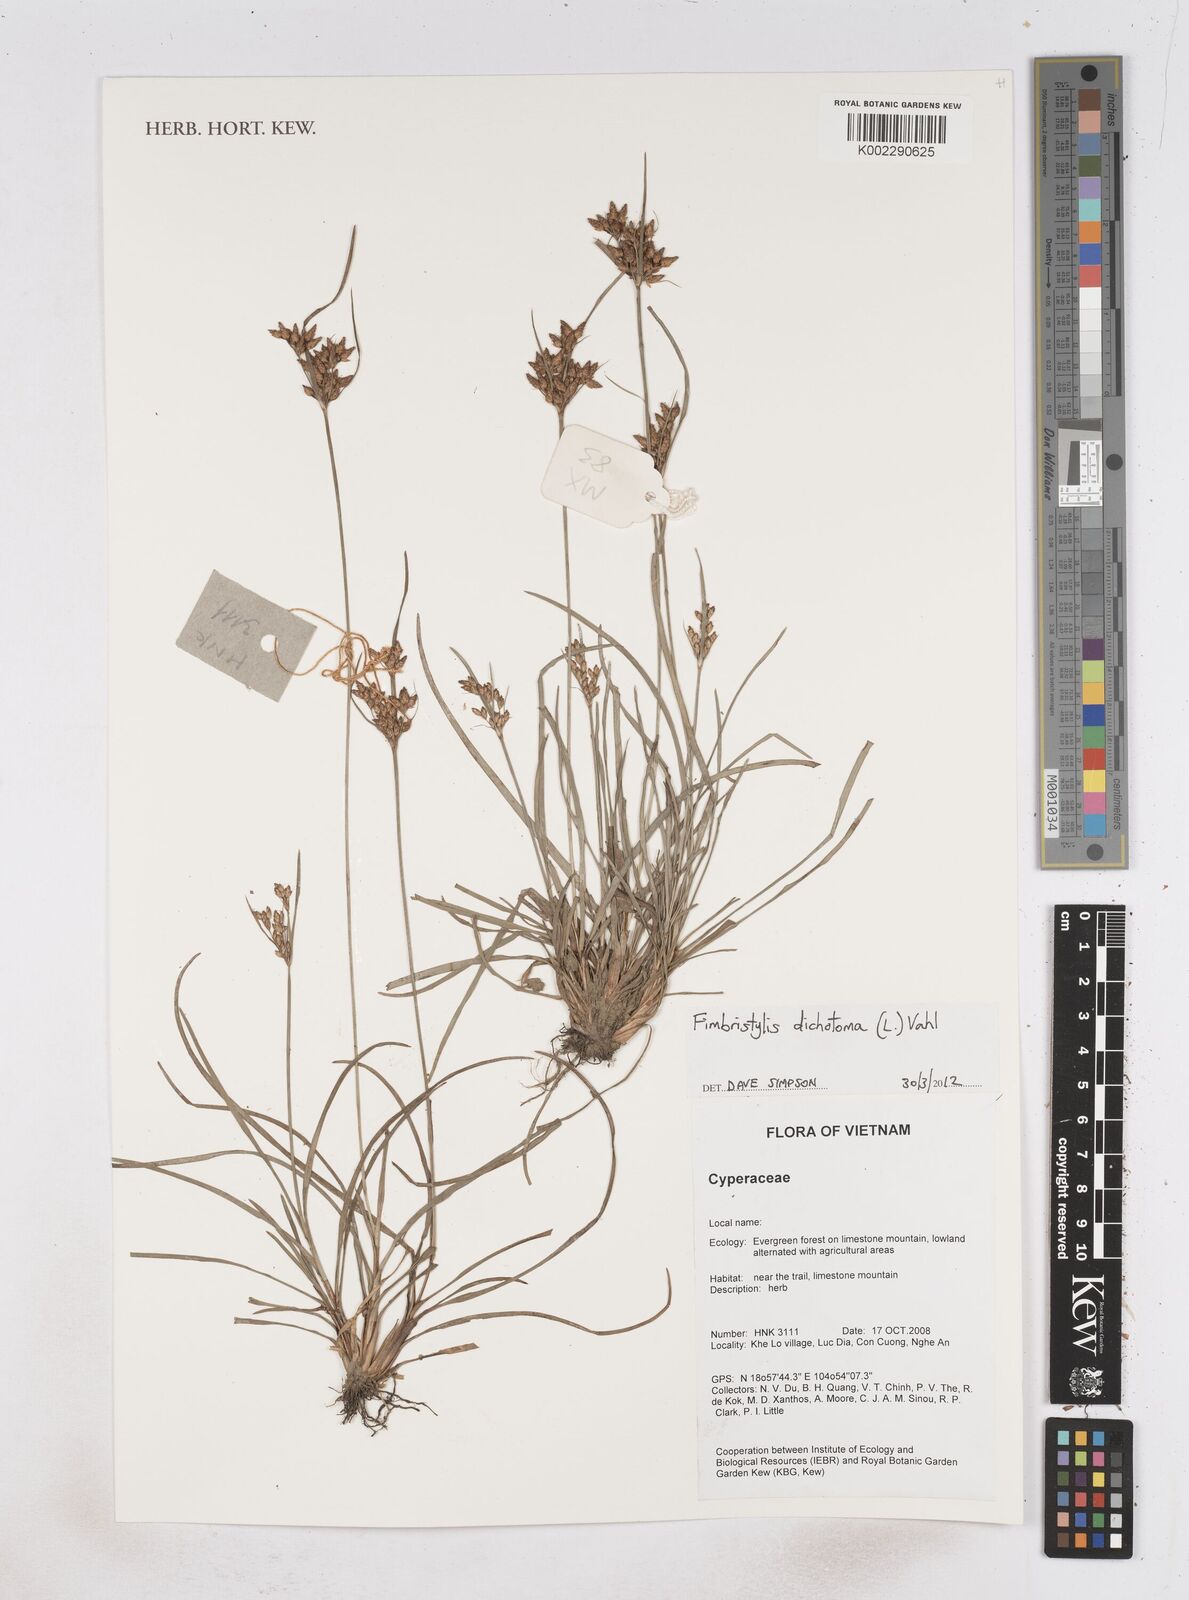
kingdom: Plantae
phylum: Tracheophyta
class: Liliopsida
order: Poales
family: Cyperaceae
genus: Fimbristylis
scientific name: Fimbristylis dichotoma
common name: Forked fimbry
